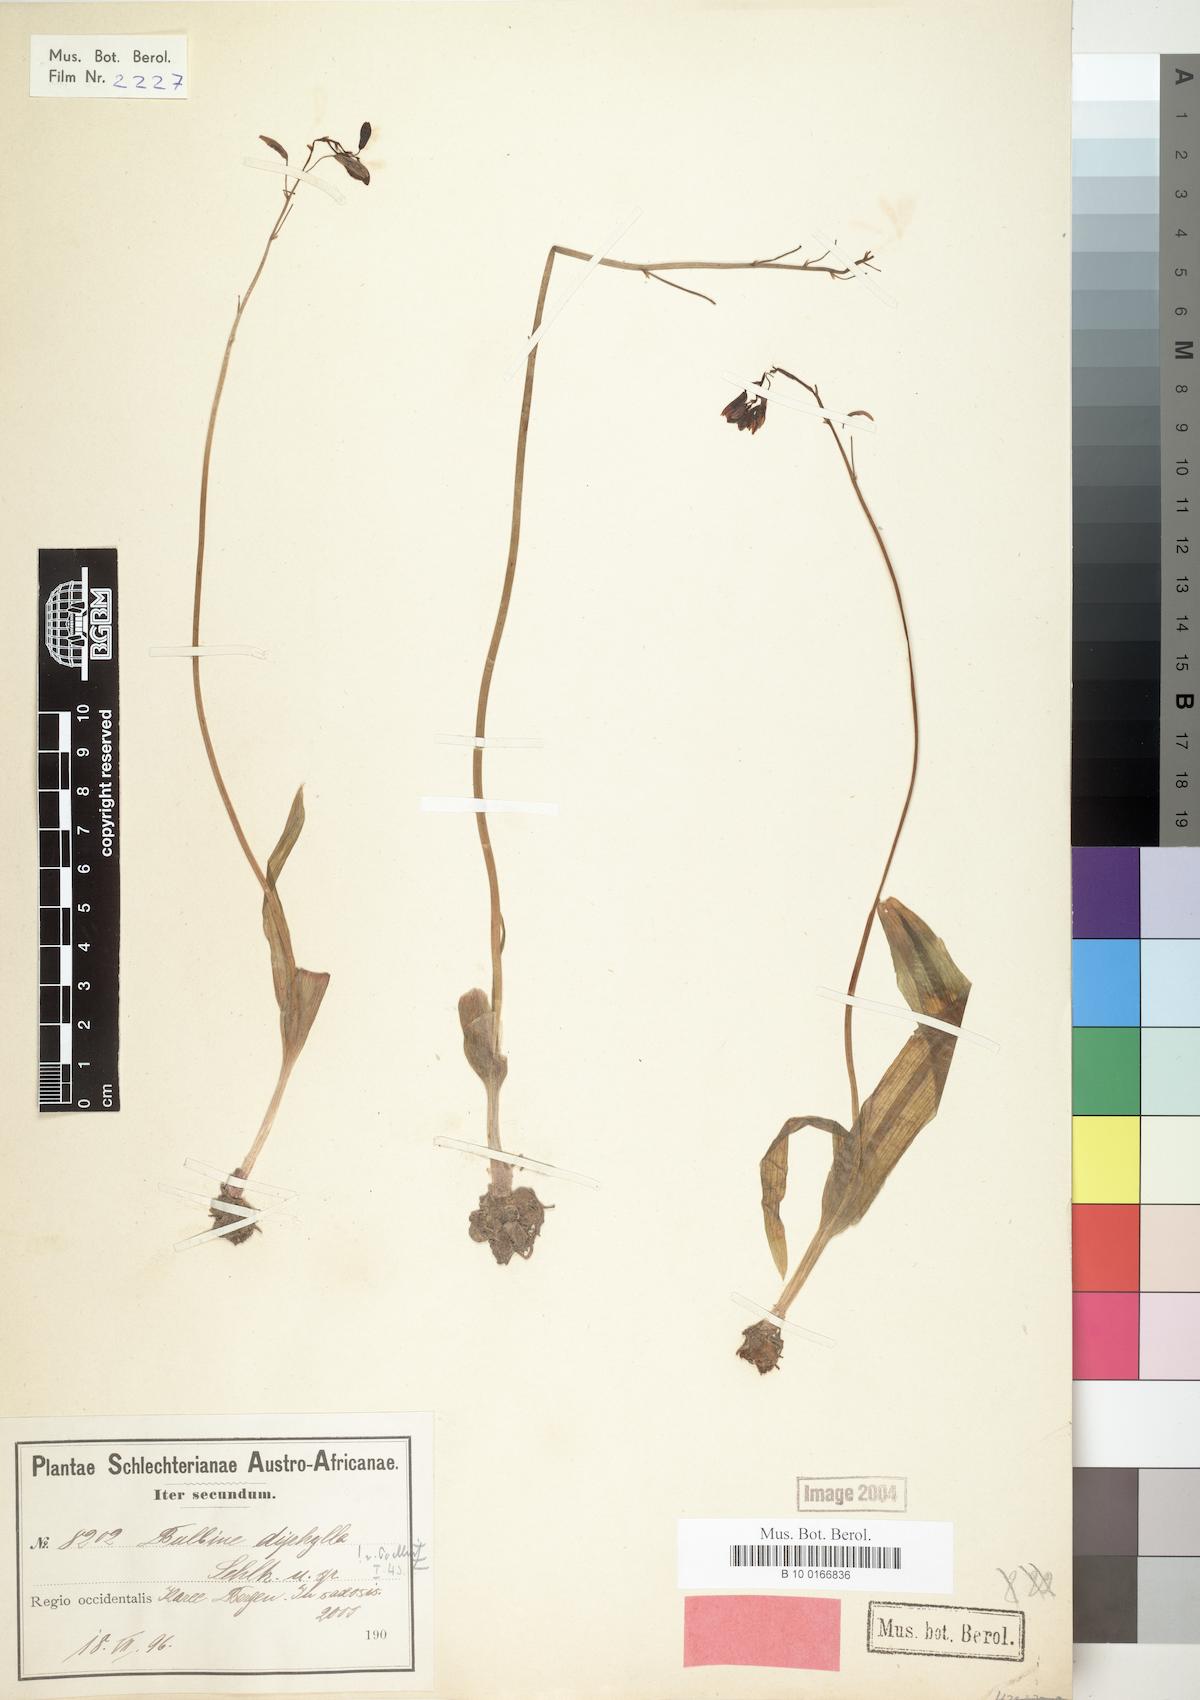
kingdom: Plantae
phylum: Tracheophyta
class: Liliopsida
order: Asparagales
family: Asphodelaceae
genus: Bulbine
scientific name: Bulbine diphylla
